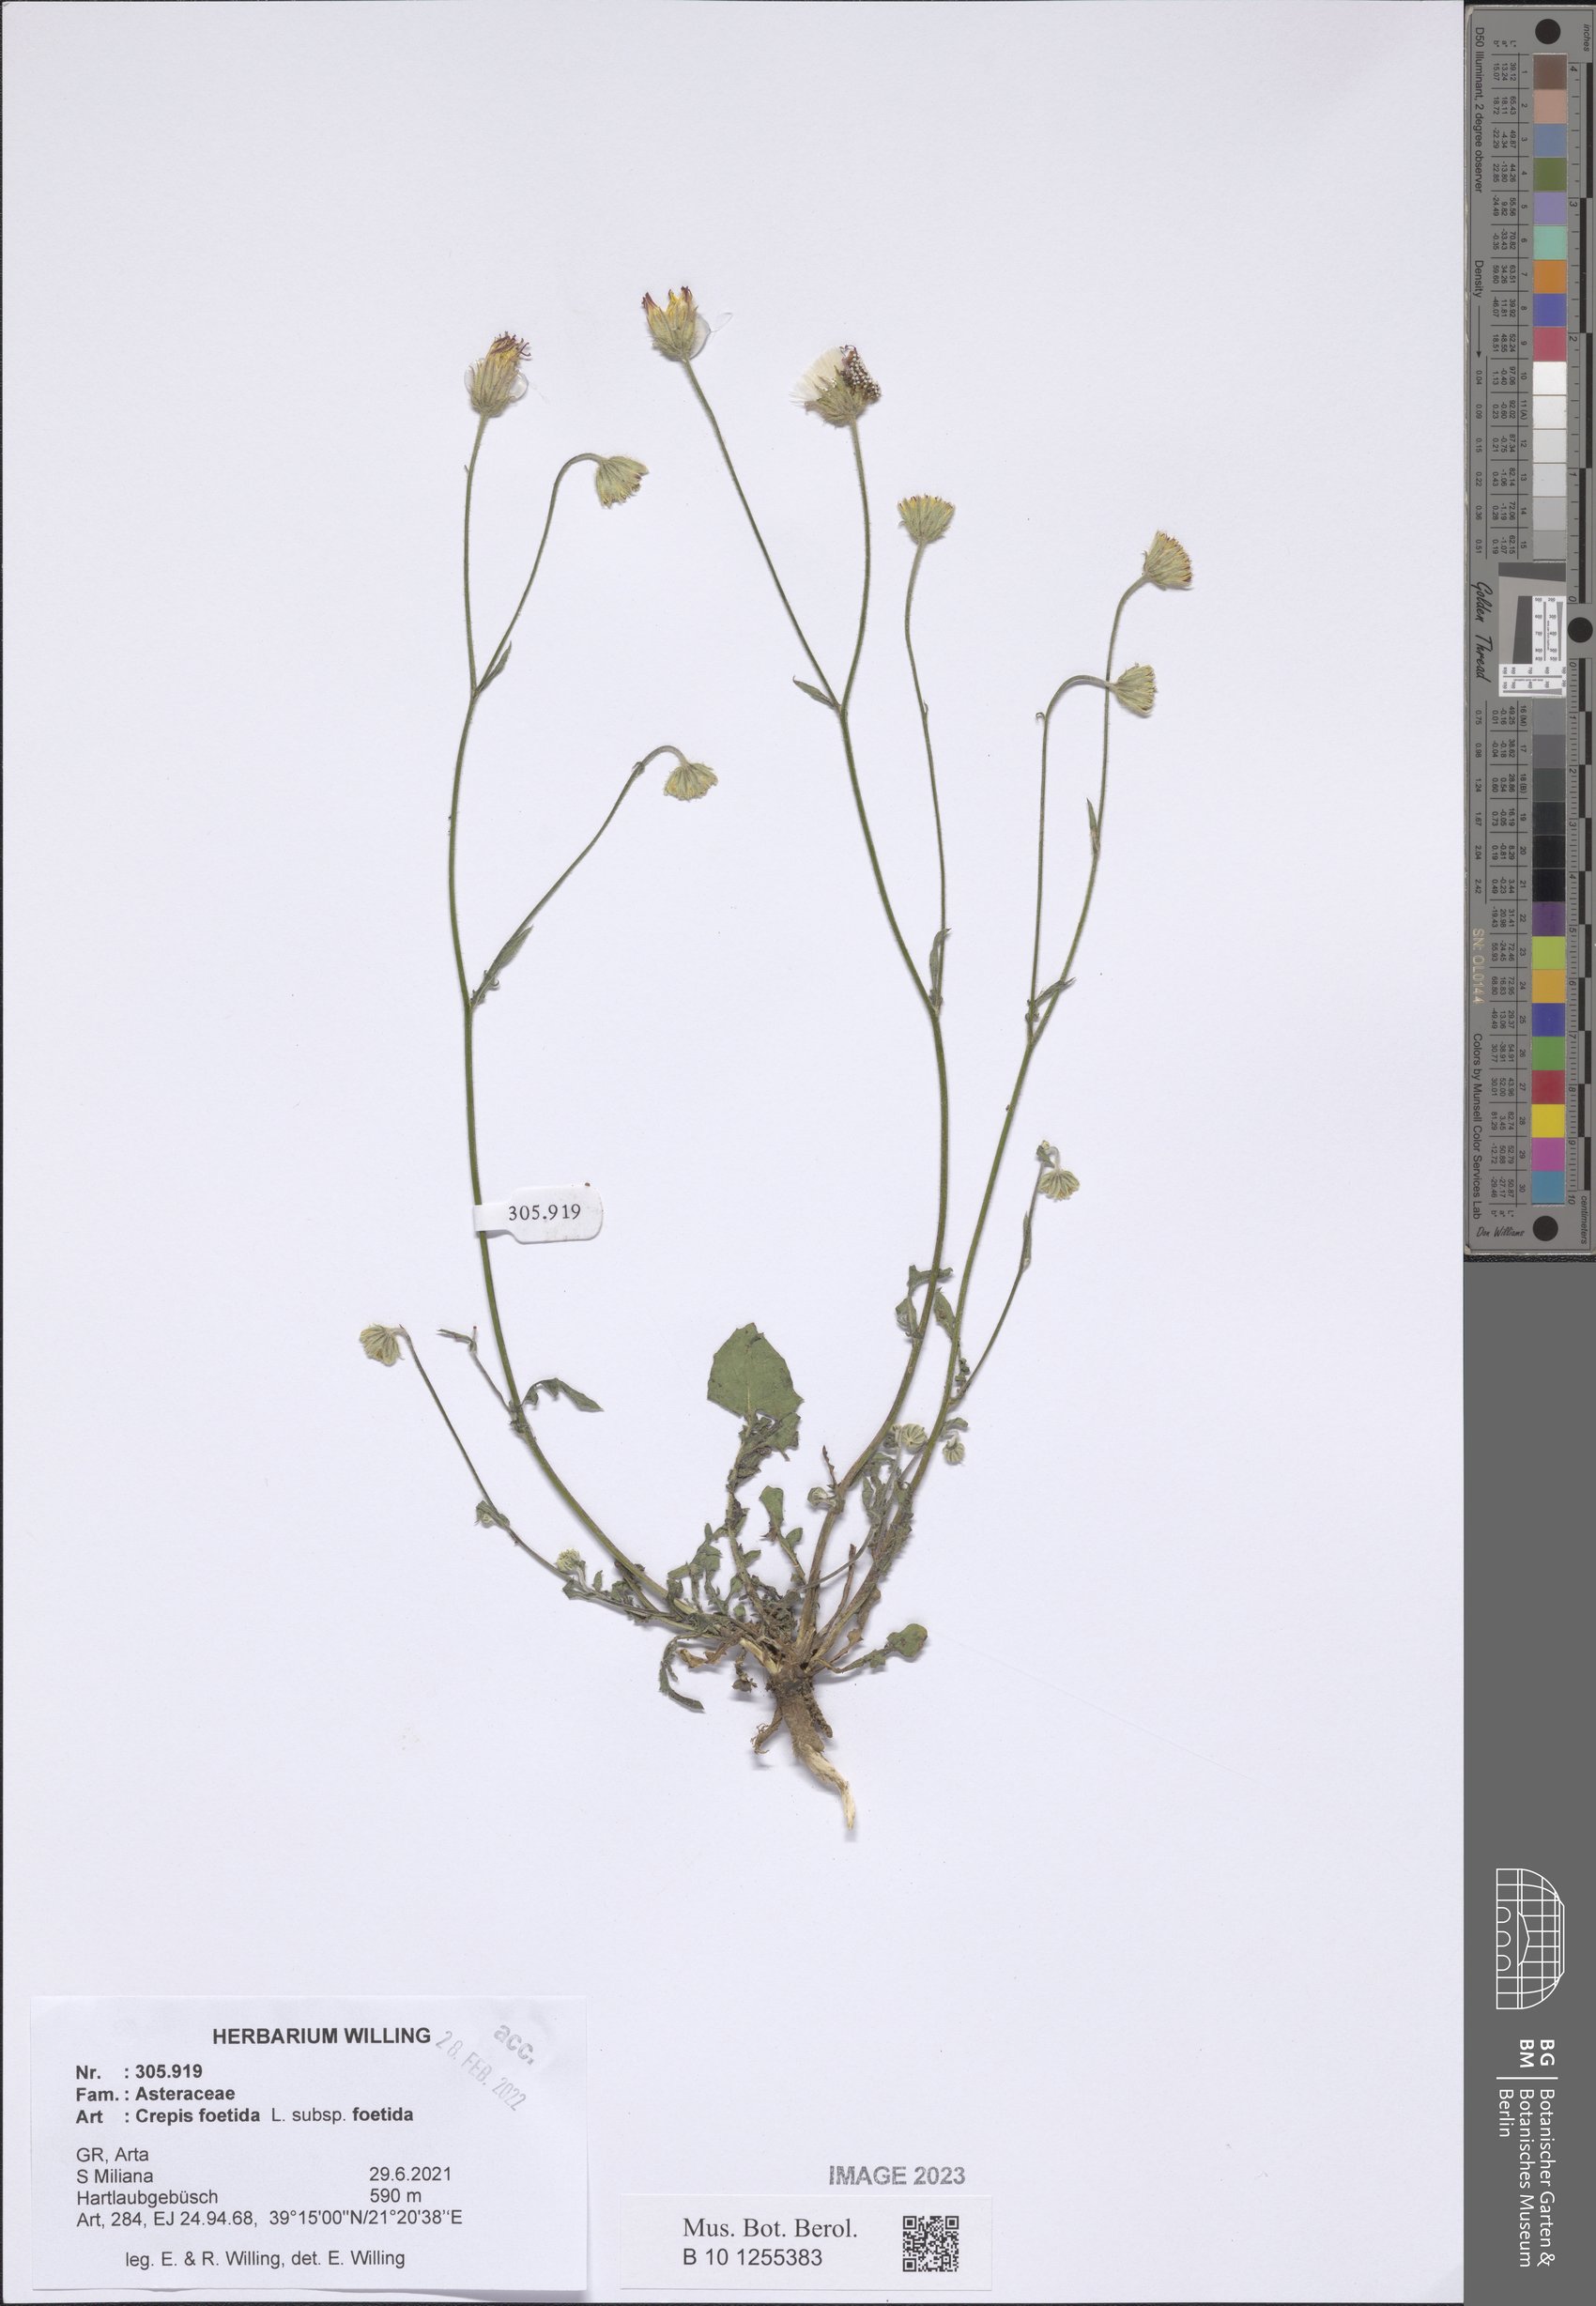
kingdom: Plantae
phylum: Tracheophyta
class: Magnoliopsida
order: Asterales
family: Asteraceae
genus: Crepis
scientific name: Crepis foetida
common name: Stinking hawk's-beard
